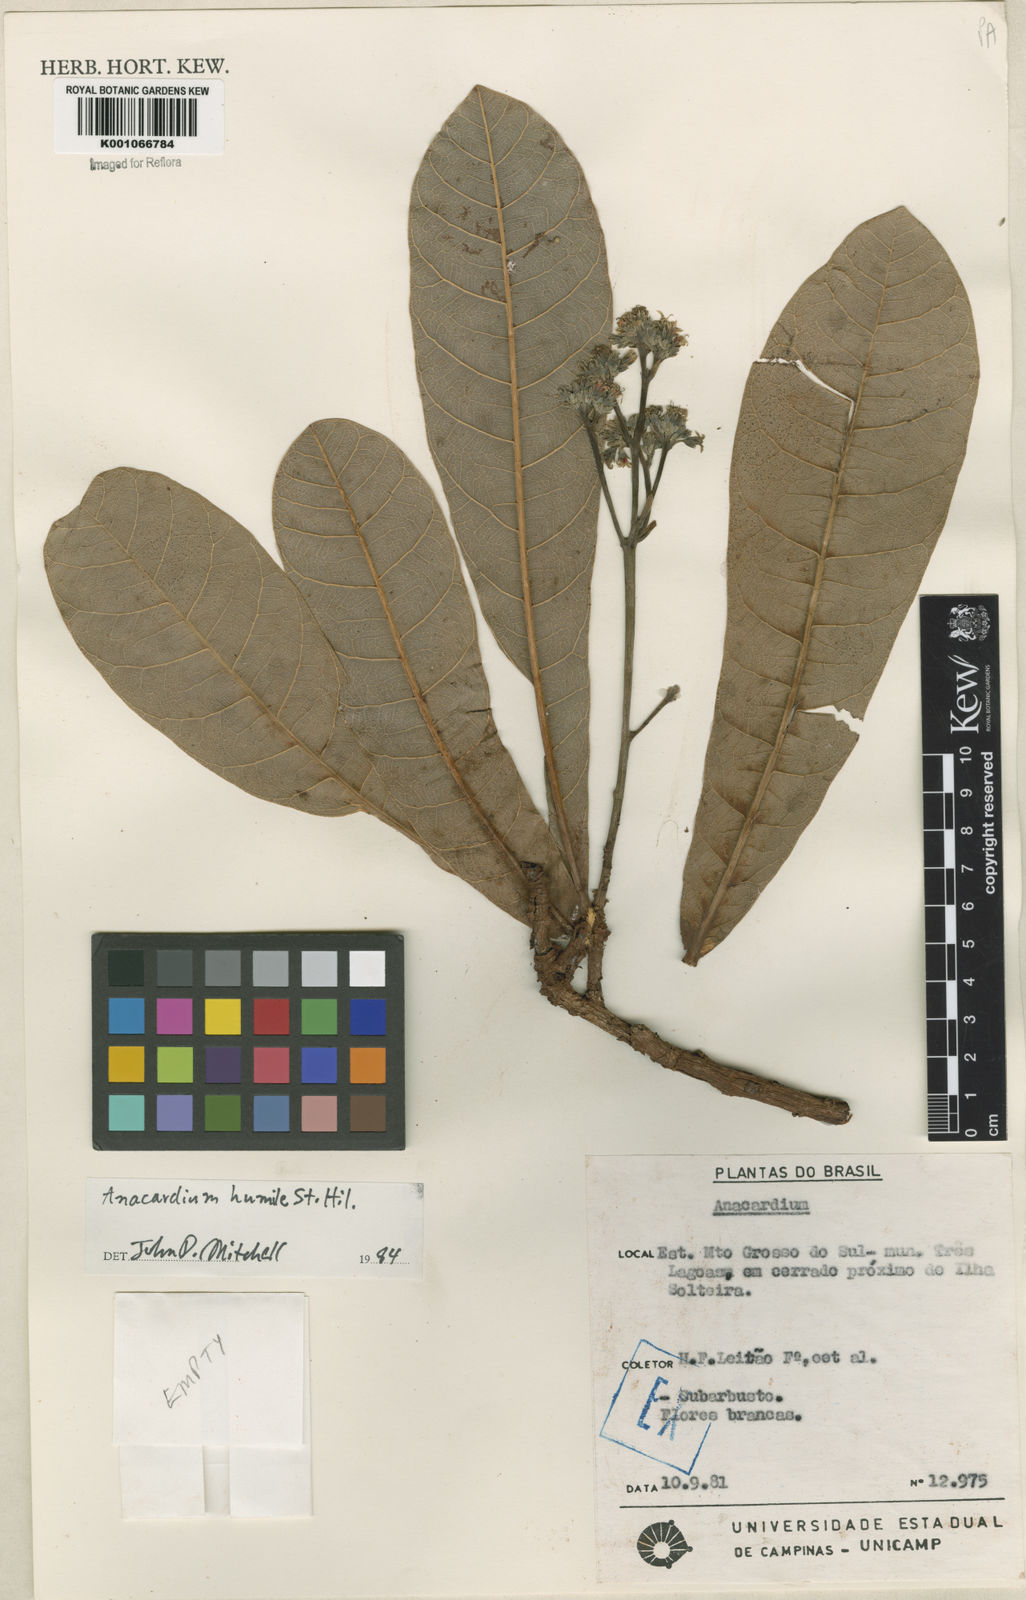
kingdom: Plantae
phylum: Tracheophyta
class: Magnoliopsida
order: Sapindales
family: Anacardiaceae
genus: Anacardium
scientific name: Anacardium humile
